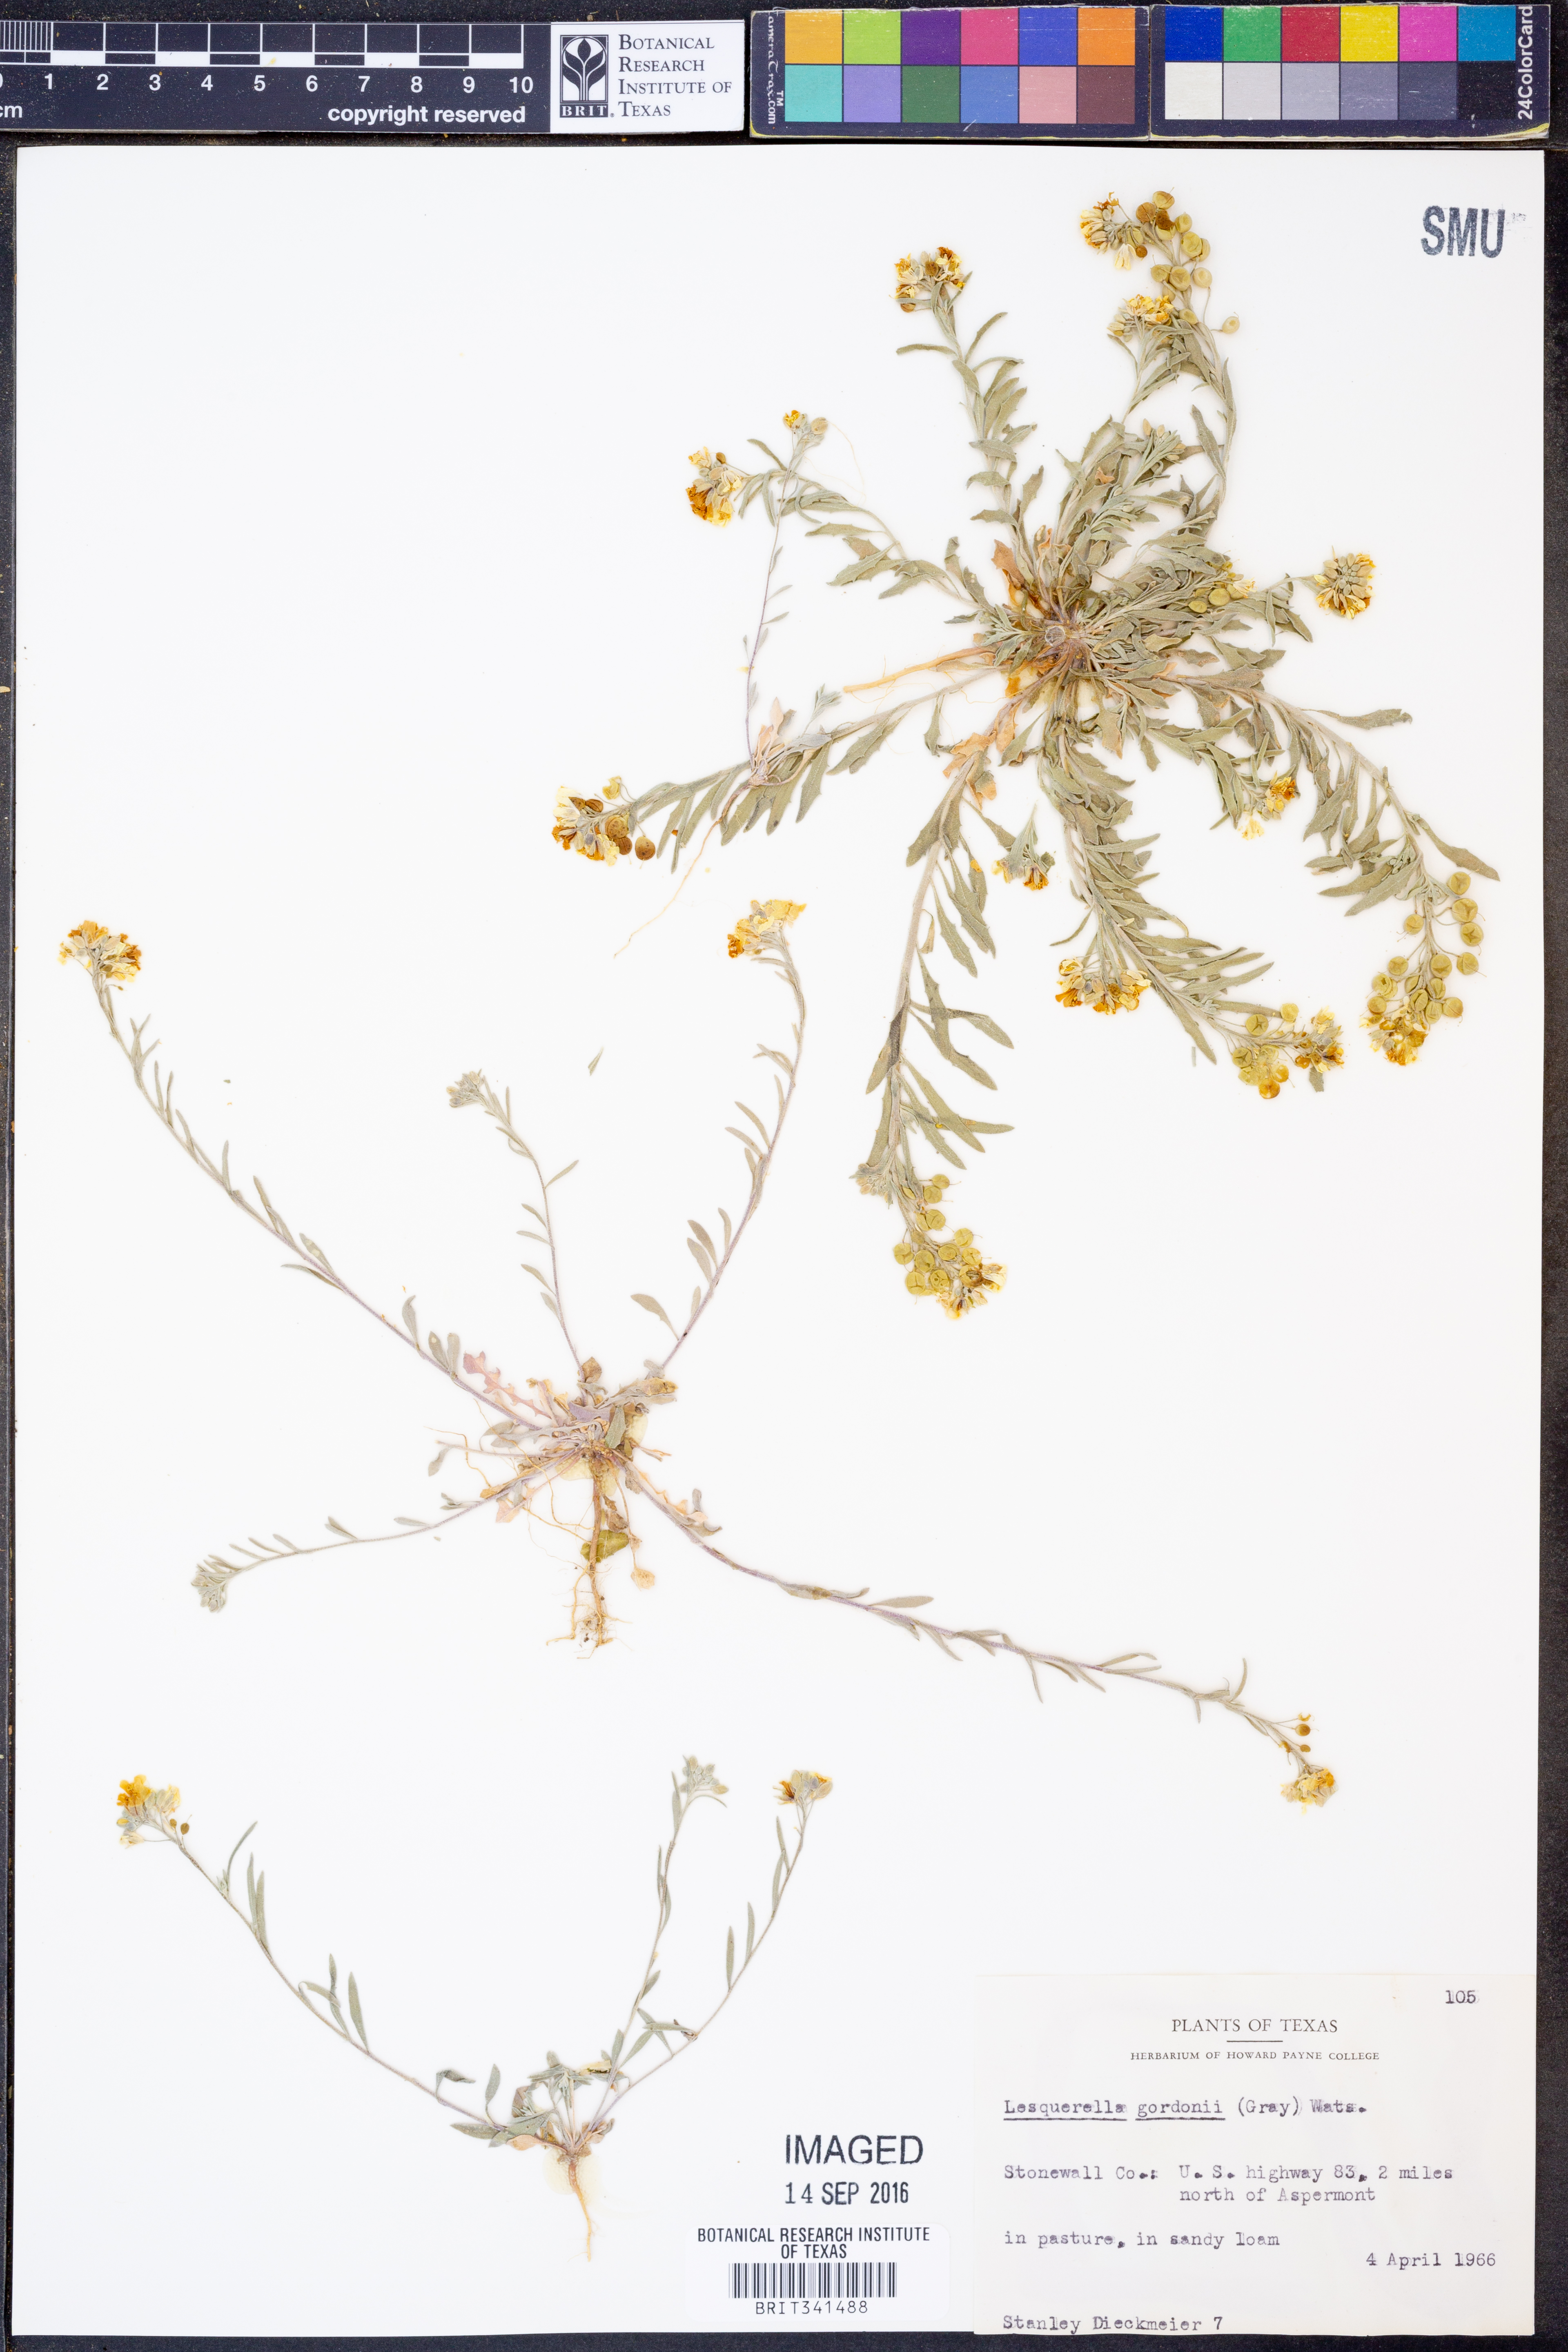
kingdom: Plantae
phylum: Tracheophyta
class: Magnoliopsida
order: Brassicales
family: Brassicaceae
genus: Physaria
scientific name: Physaria gordonii
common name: Gordon's bladderpod
